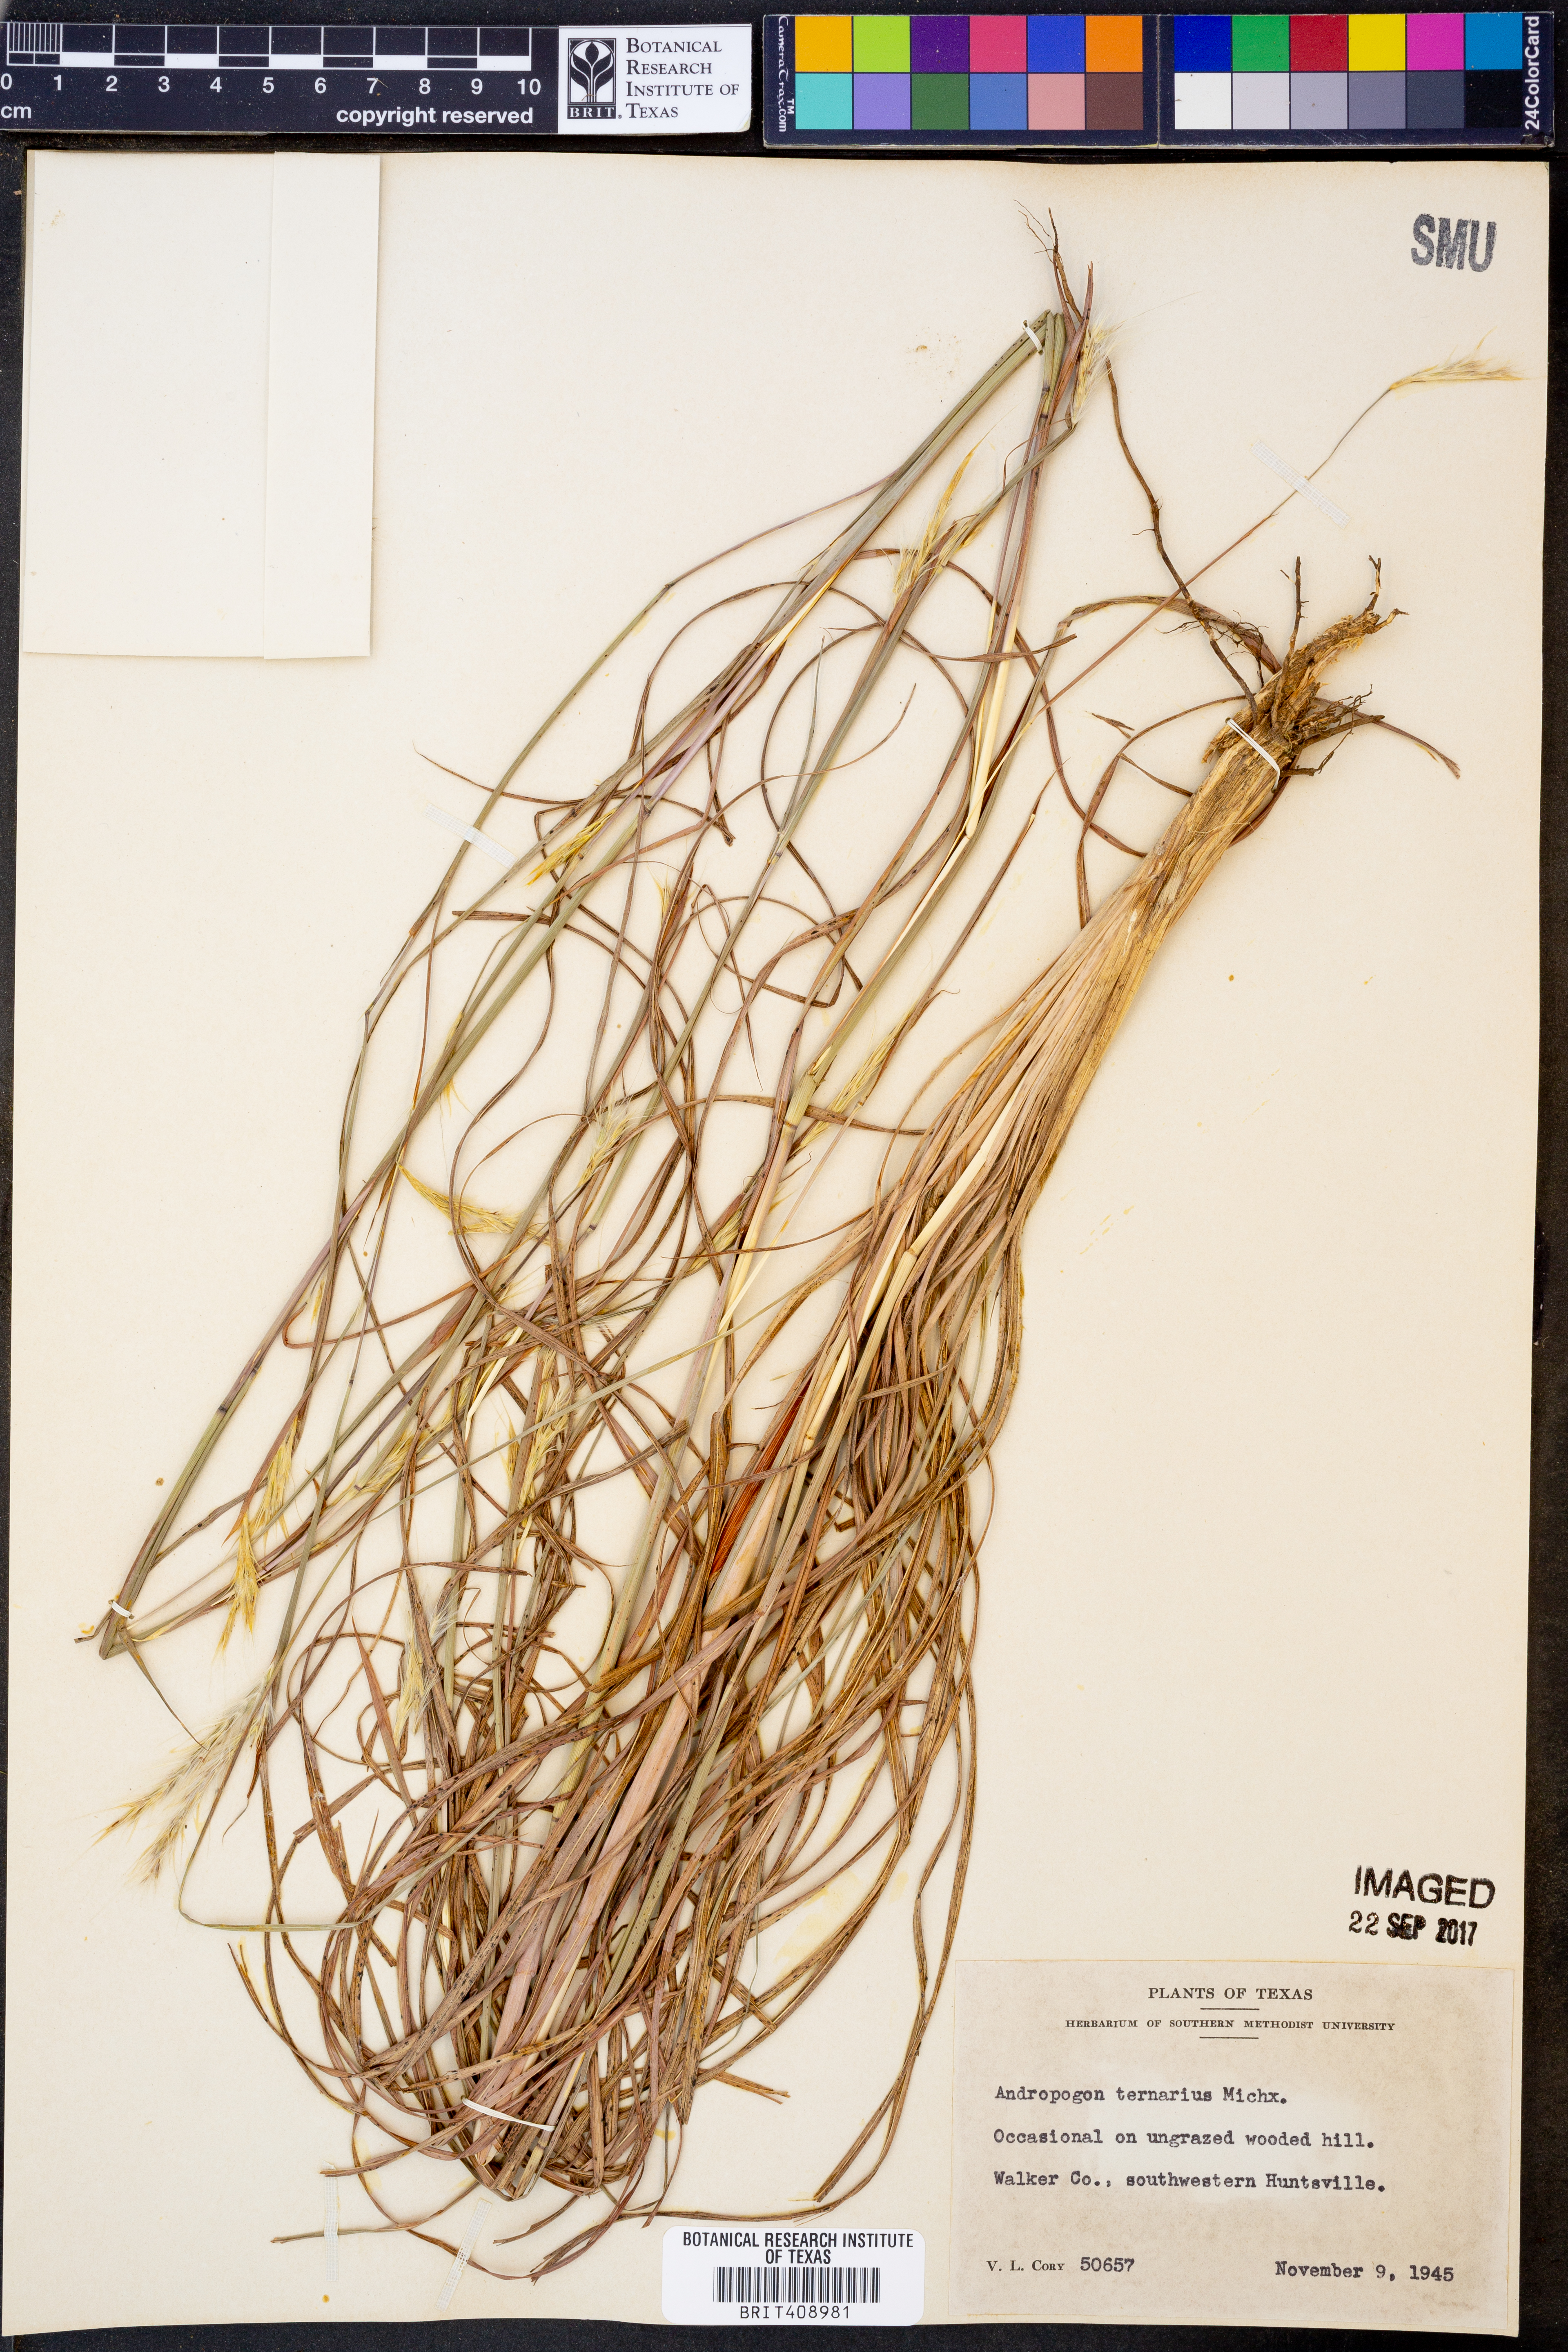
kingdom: Plantae
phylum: Tracheophyta
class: Liliopsida
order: Poales
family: Poaceae
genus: Andropogon
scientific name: Andropogon ternarius
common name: Split bluestem
